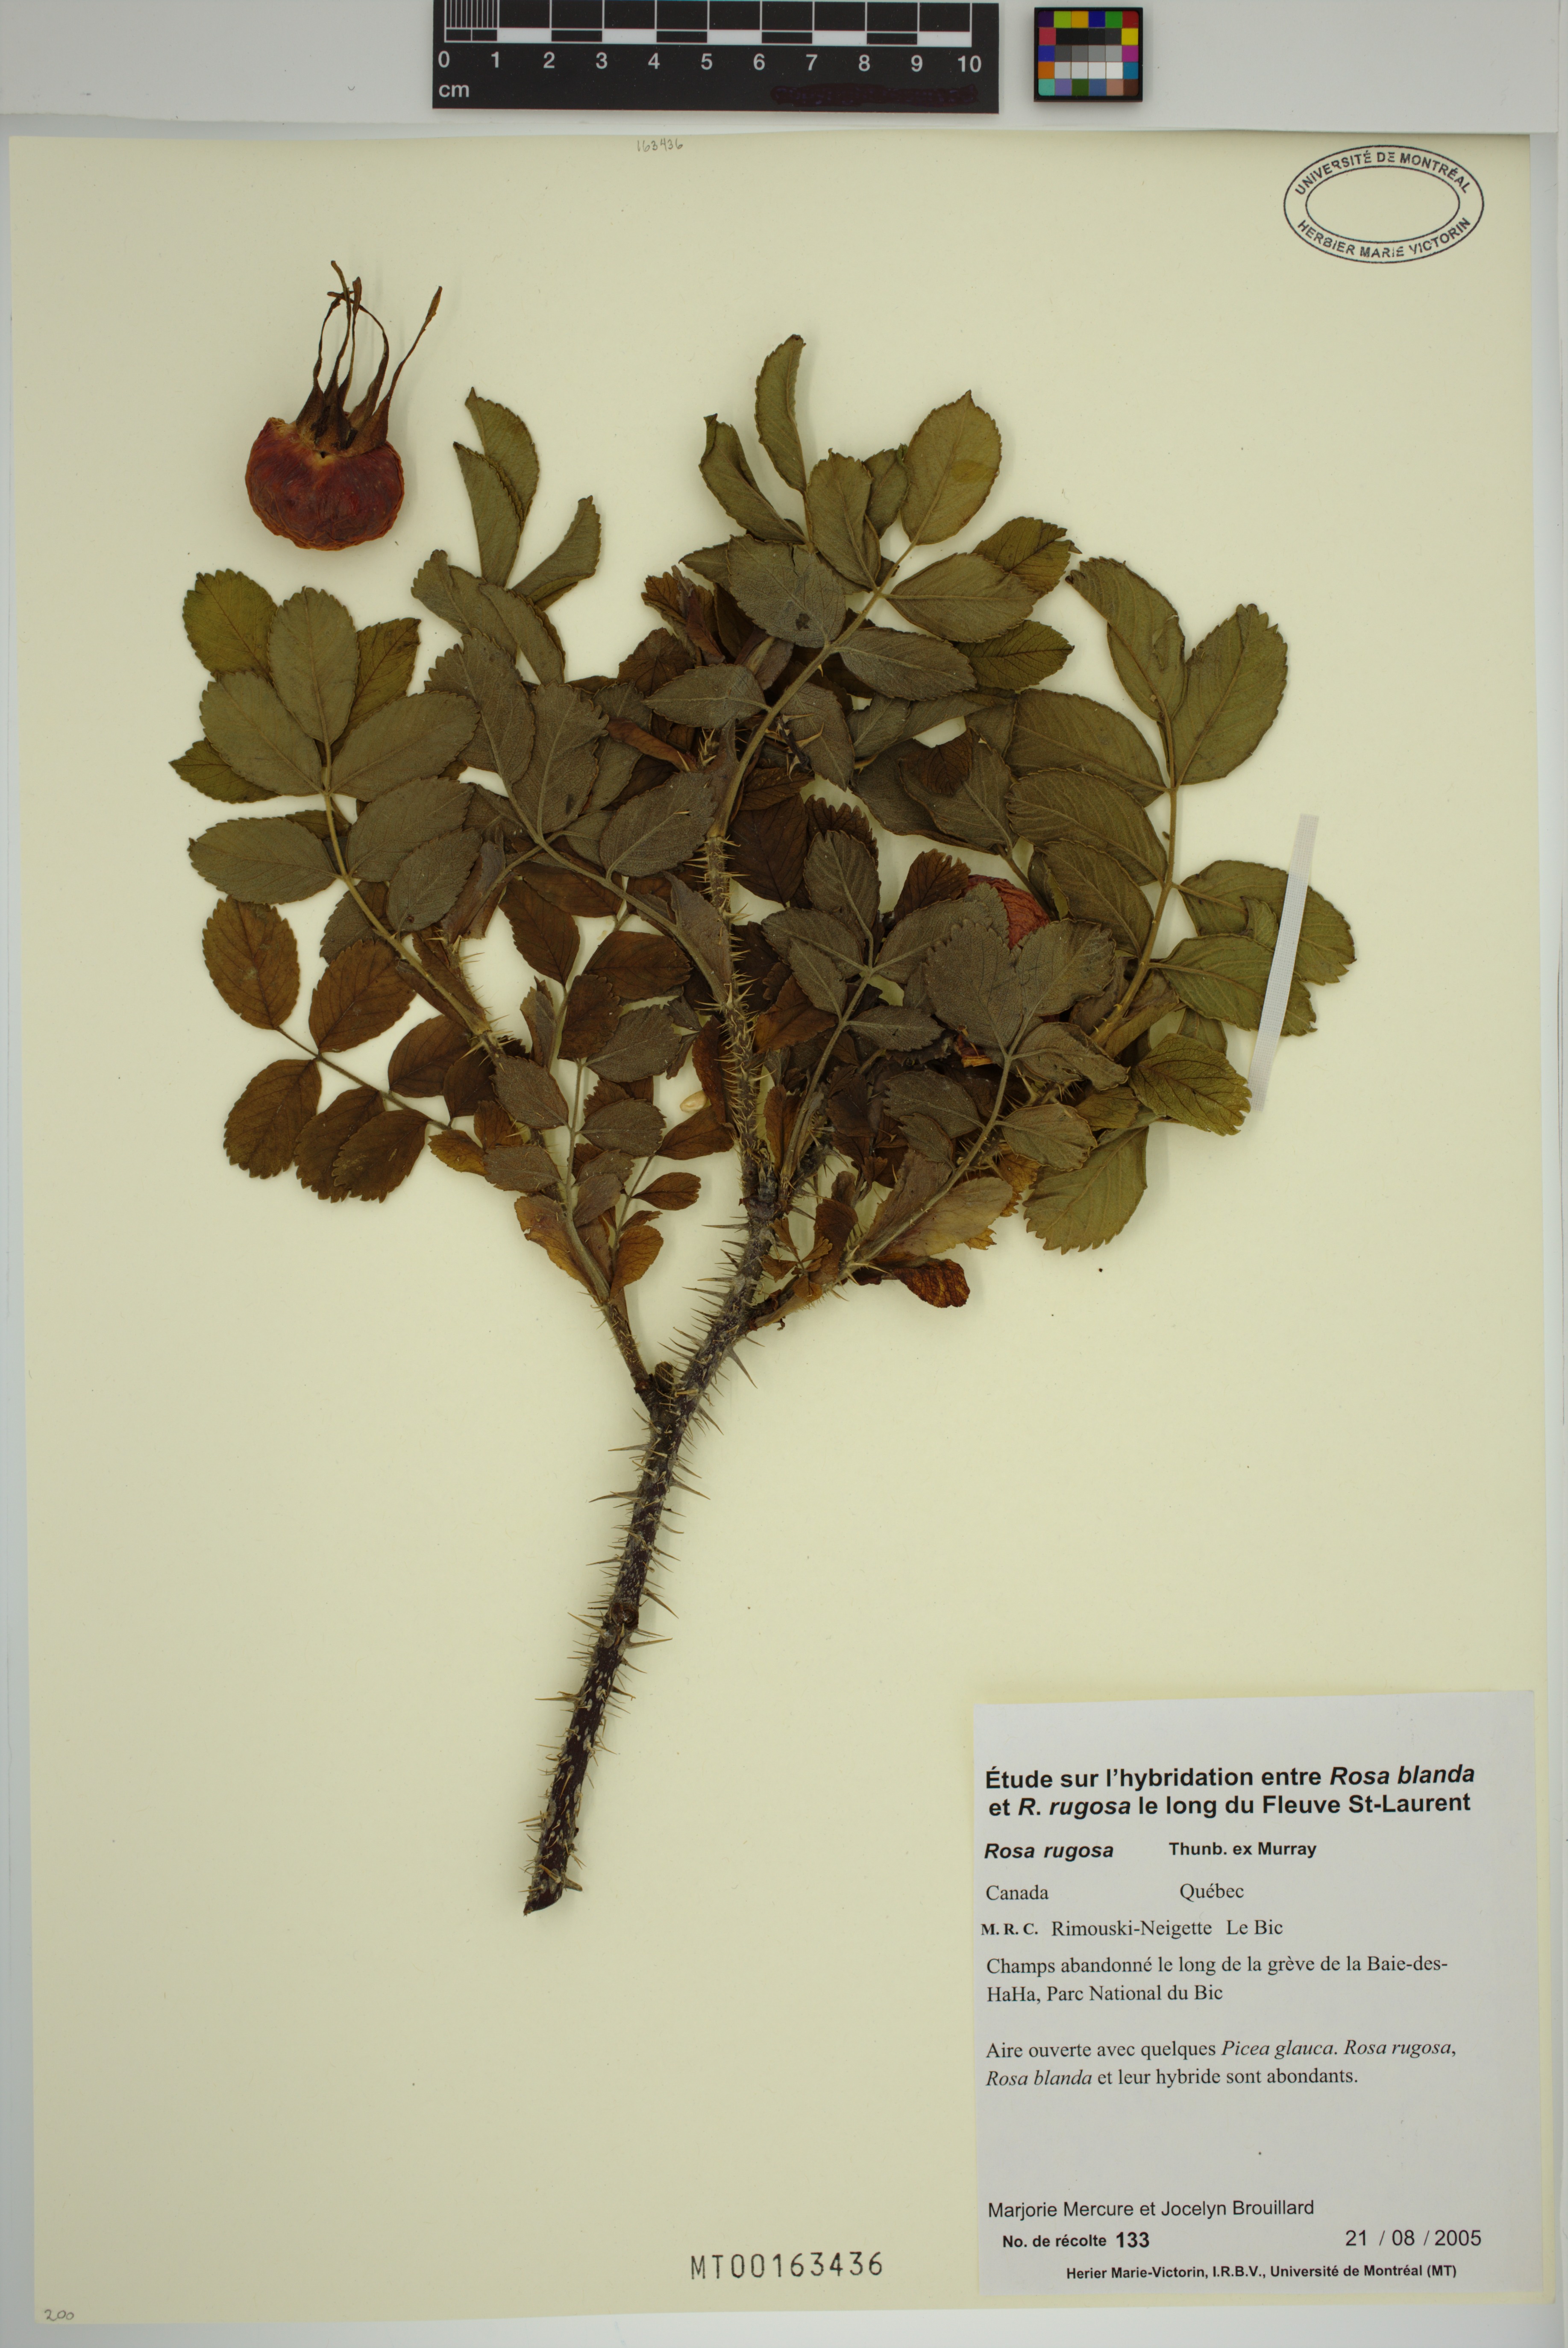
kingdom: Plantae
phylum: Tracheophyta
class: Magnoliopsida
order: Rosales
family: Rosaceae
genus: Rosa
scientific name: Rosa rugosa
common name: Japanese rose
